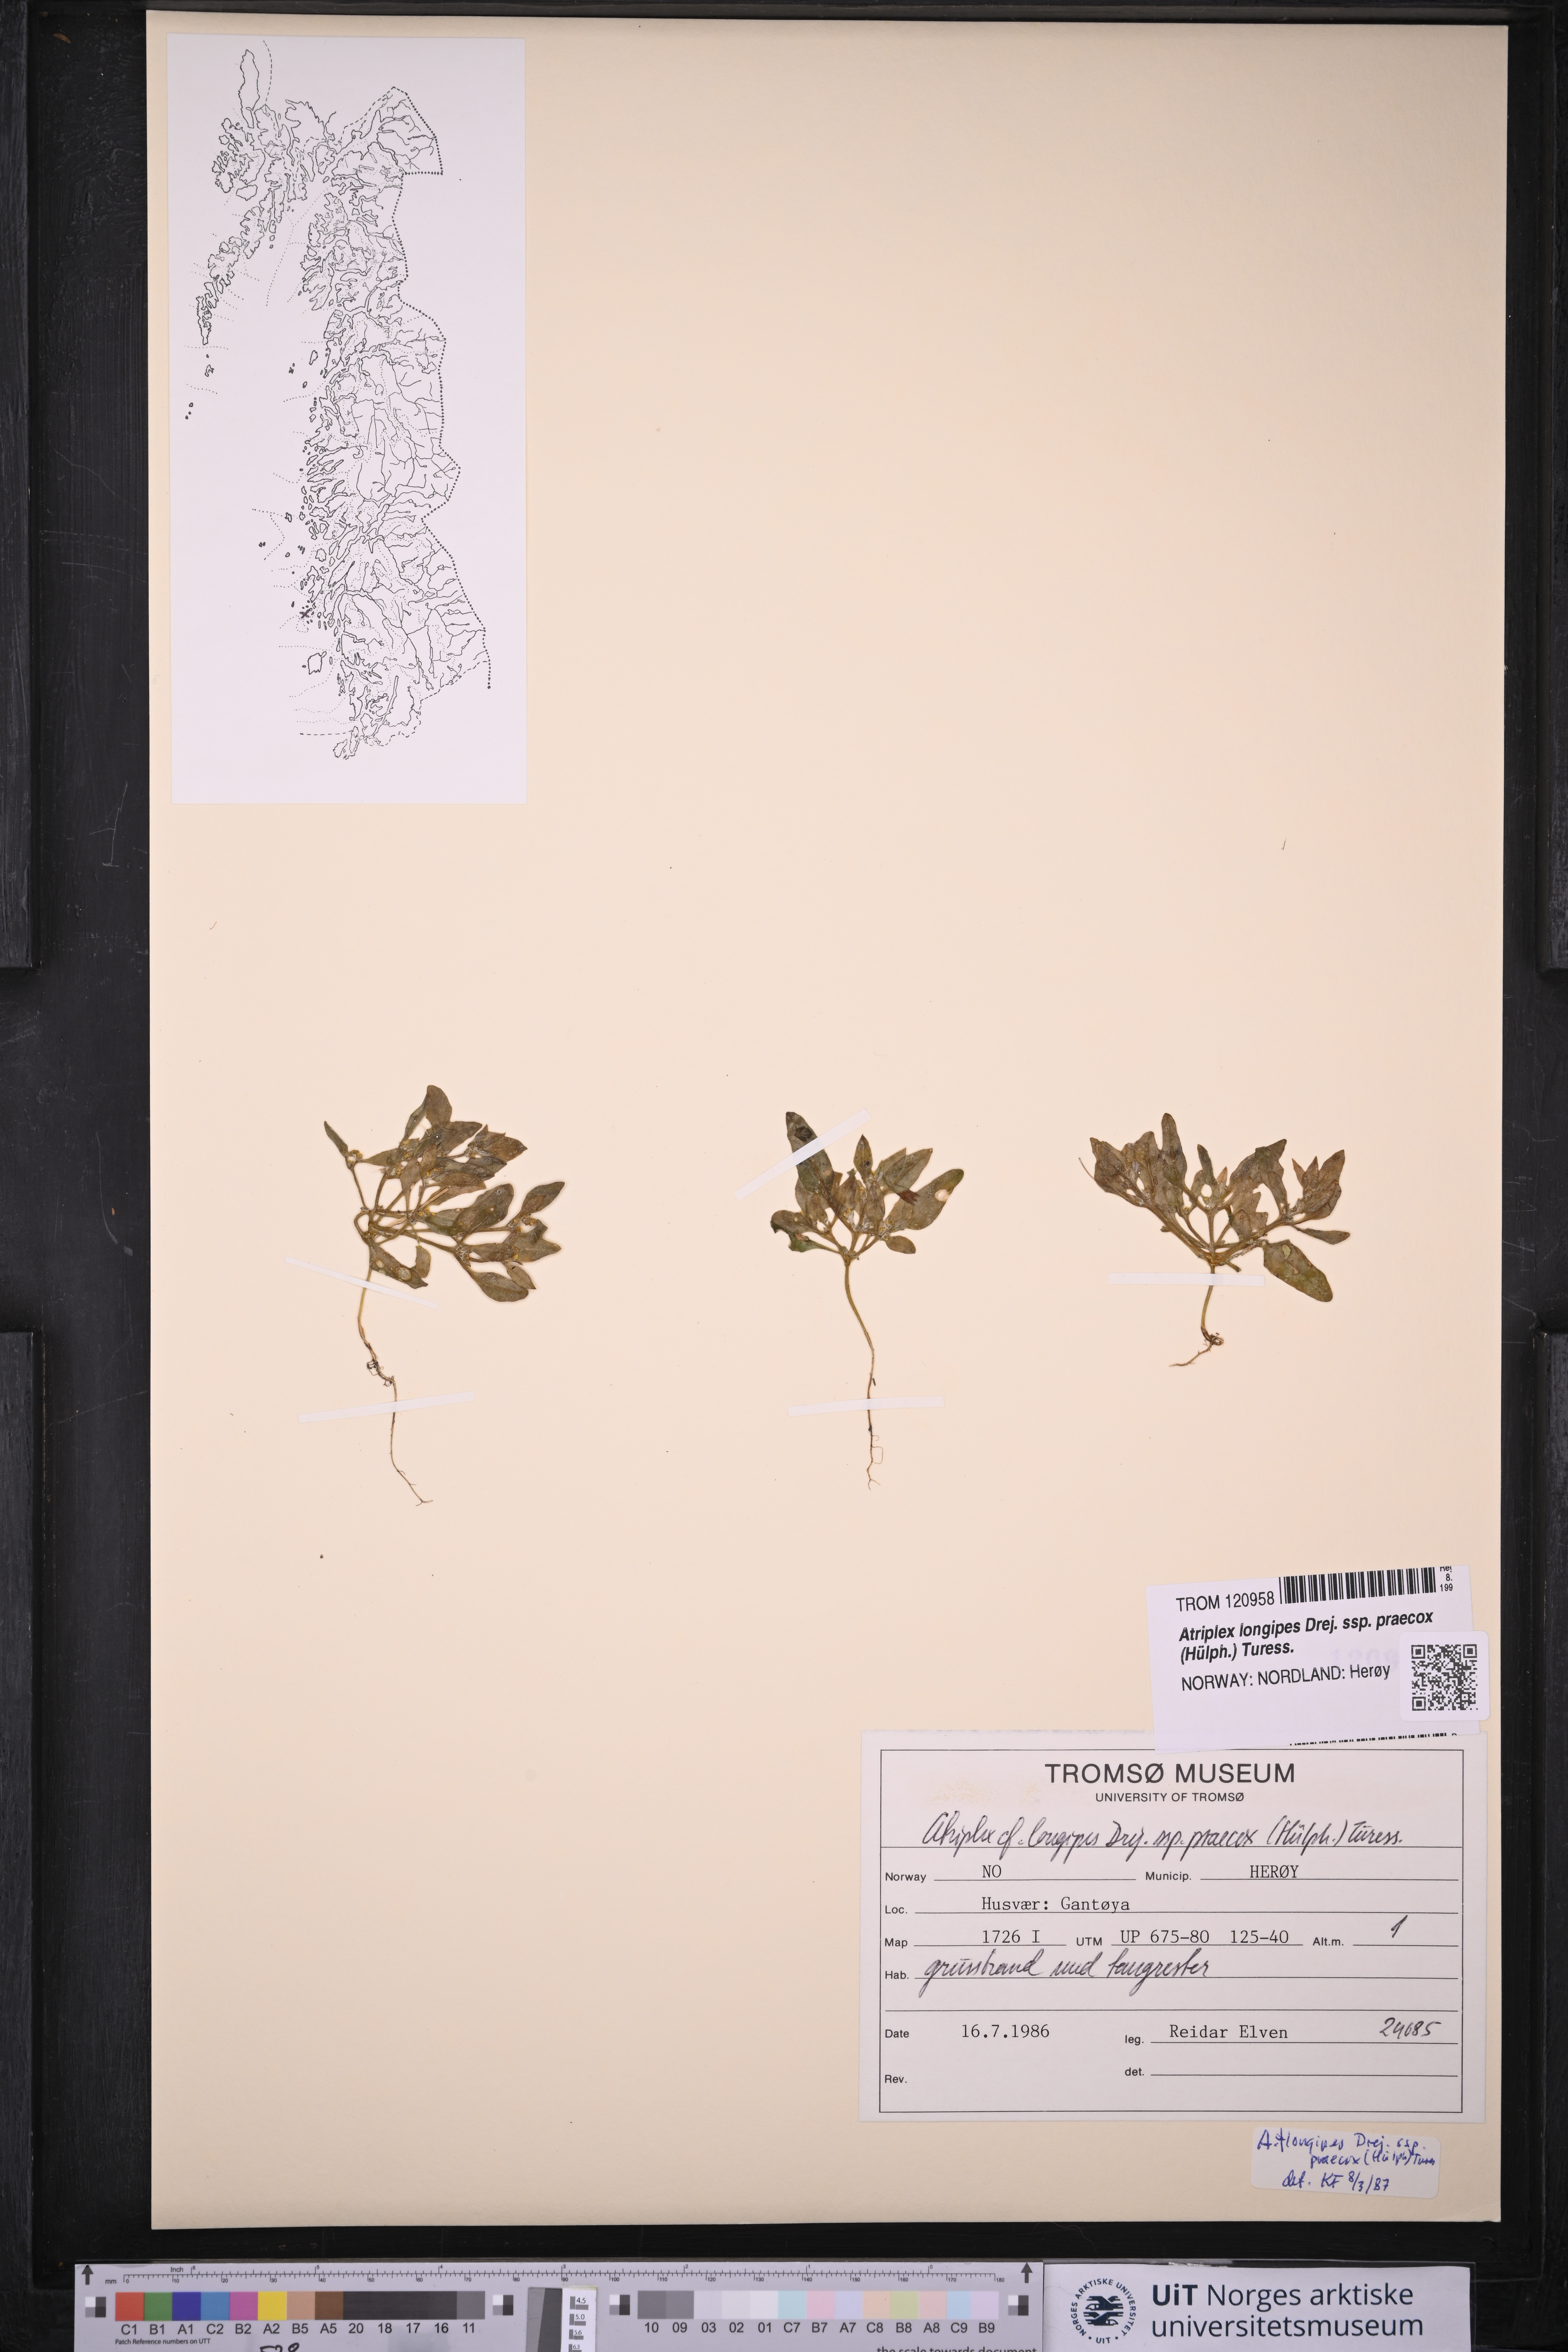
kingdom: Plantae
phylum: Tracheophyta
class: Magnoliopsida
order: Caryophyllales
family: Amaranthaceae
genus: Atriplex
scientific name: Atriplex praecox
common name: Early orache
